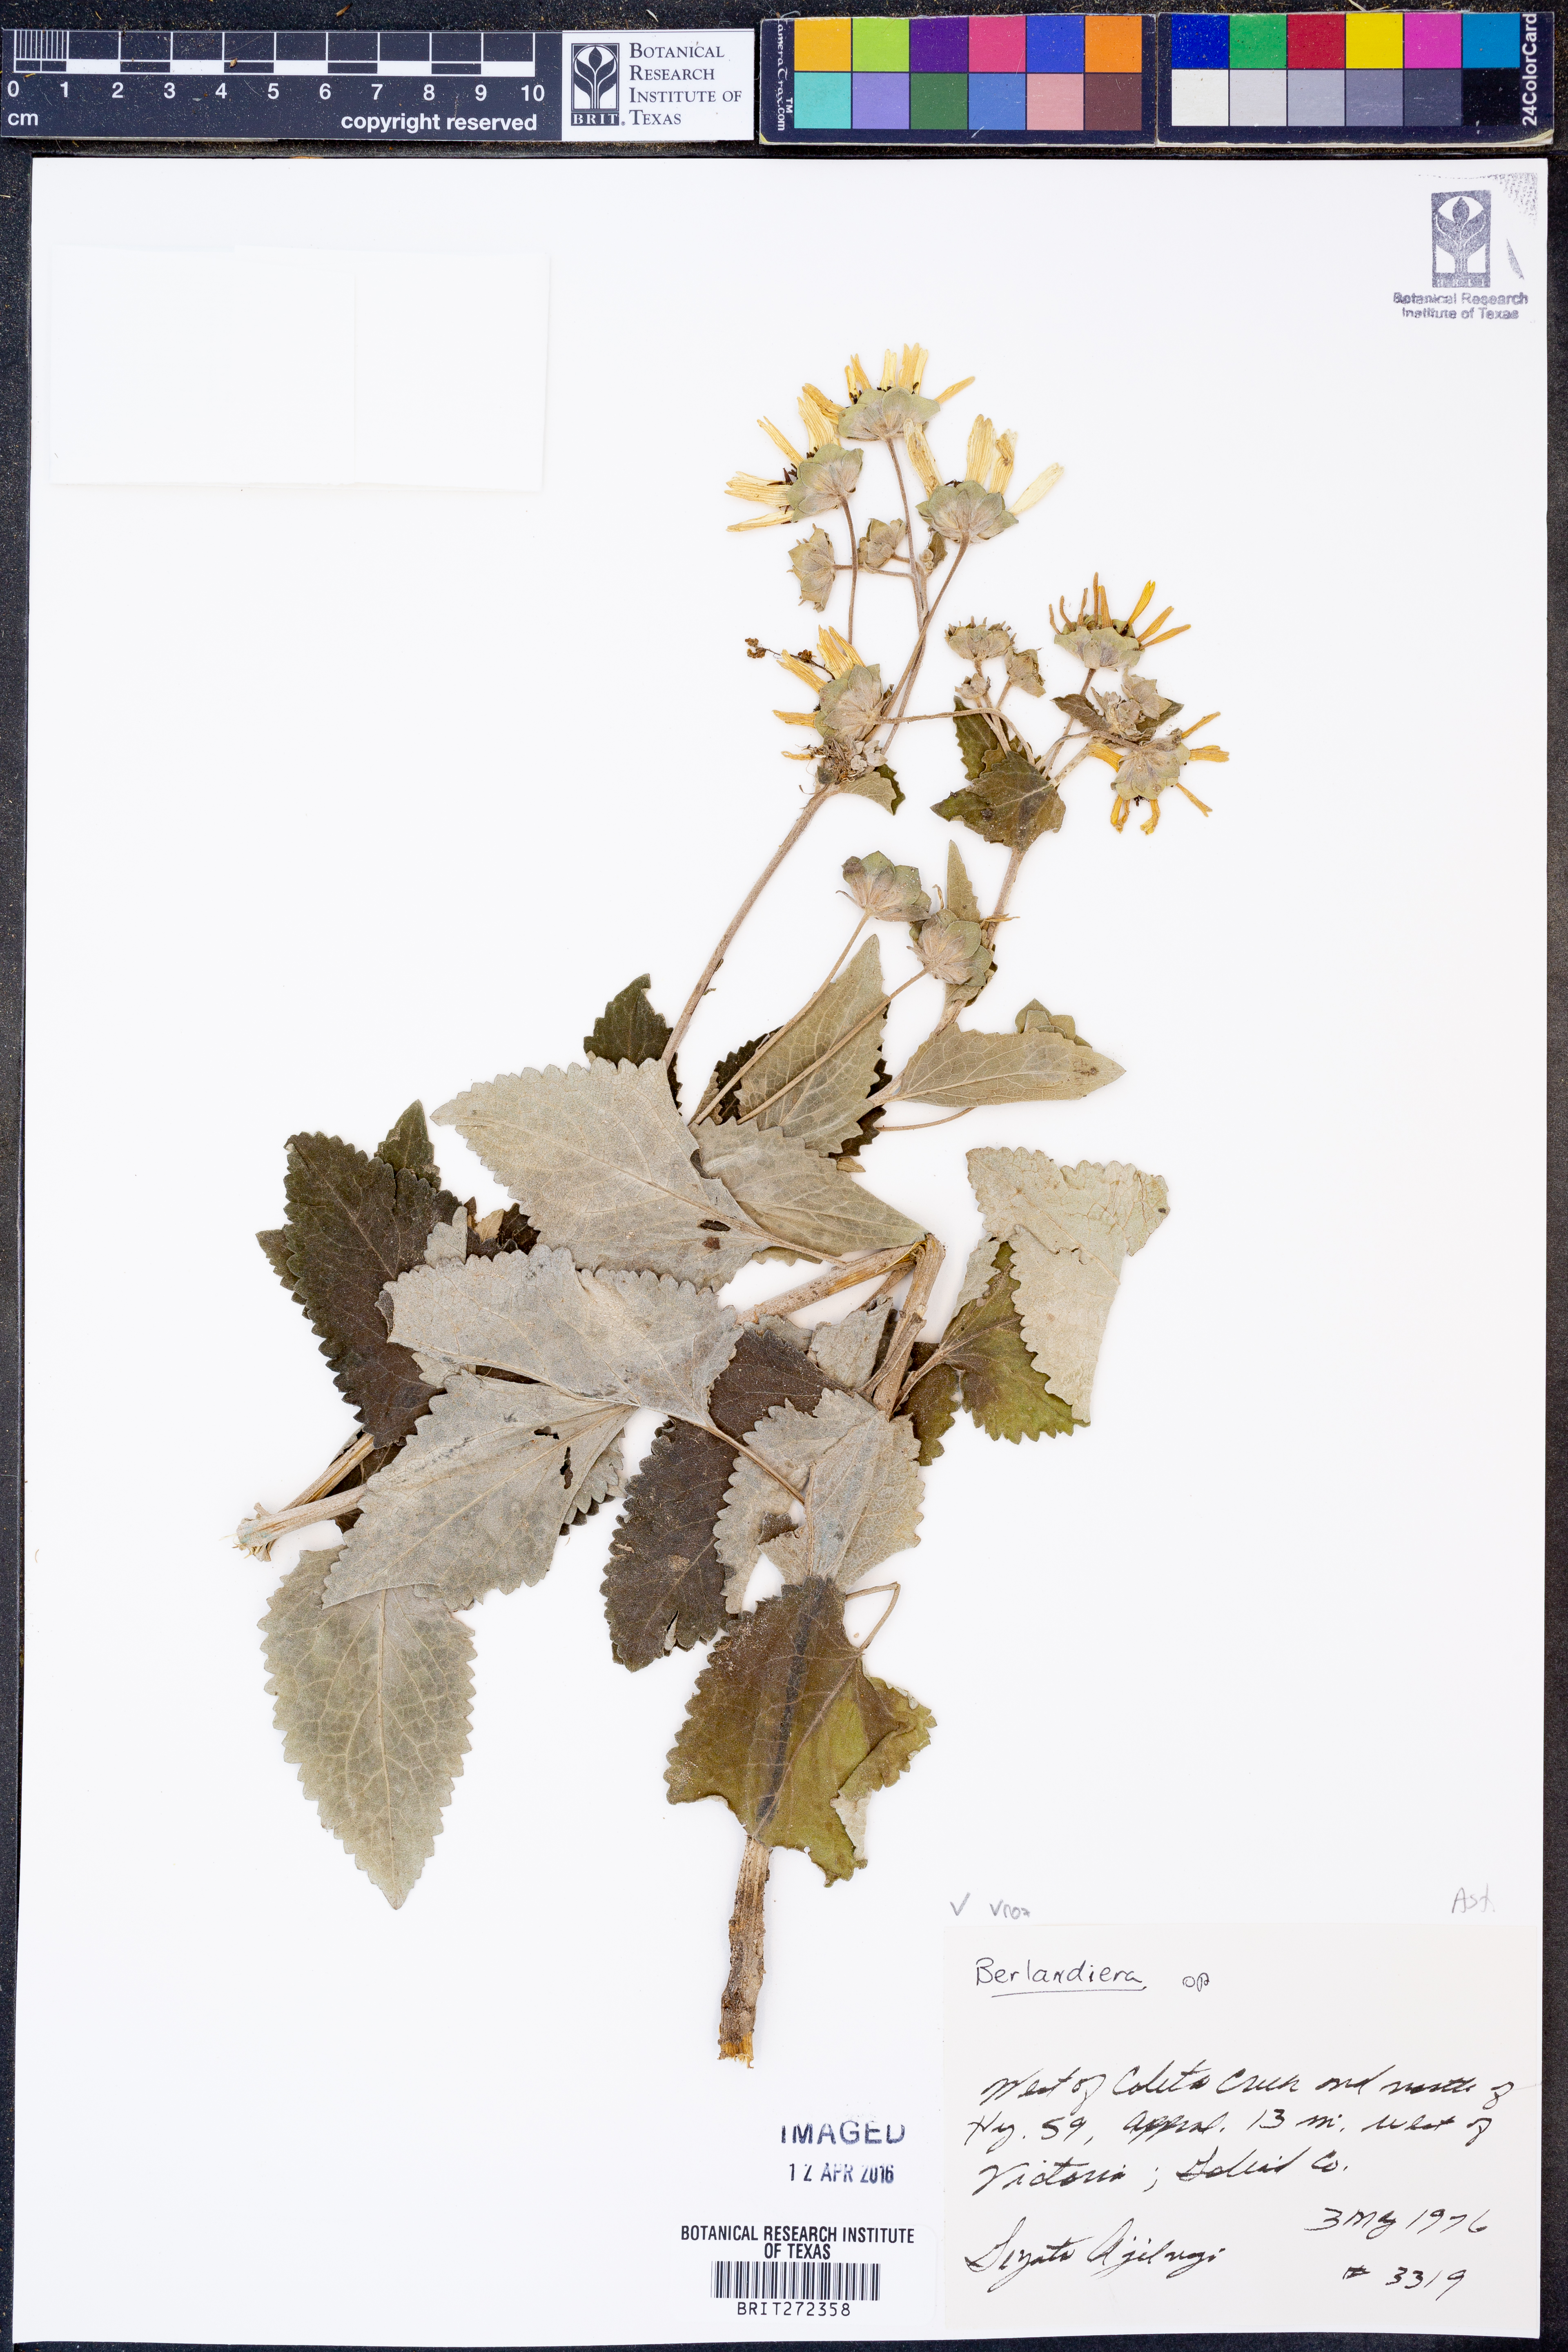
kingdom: Plantae
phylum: Tracheophyta
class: Magnoliopsida
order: Asterales
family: Asteraceae
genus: Berlandiera
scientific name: Berlandiera
